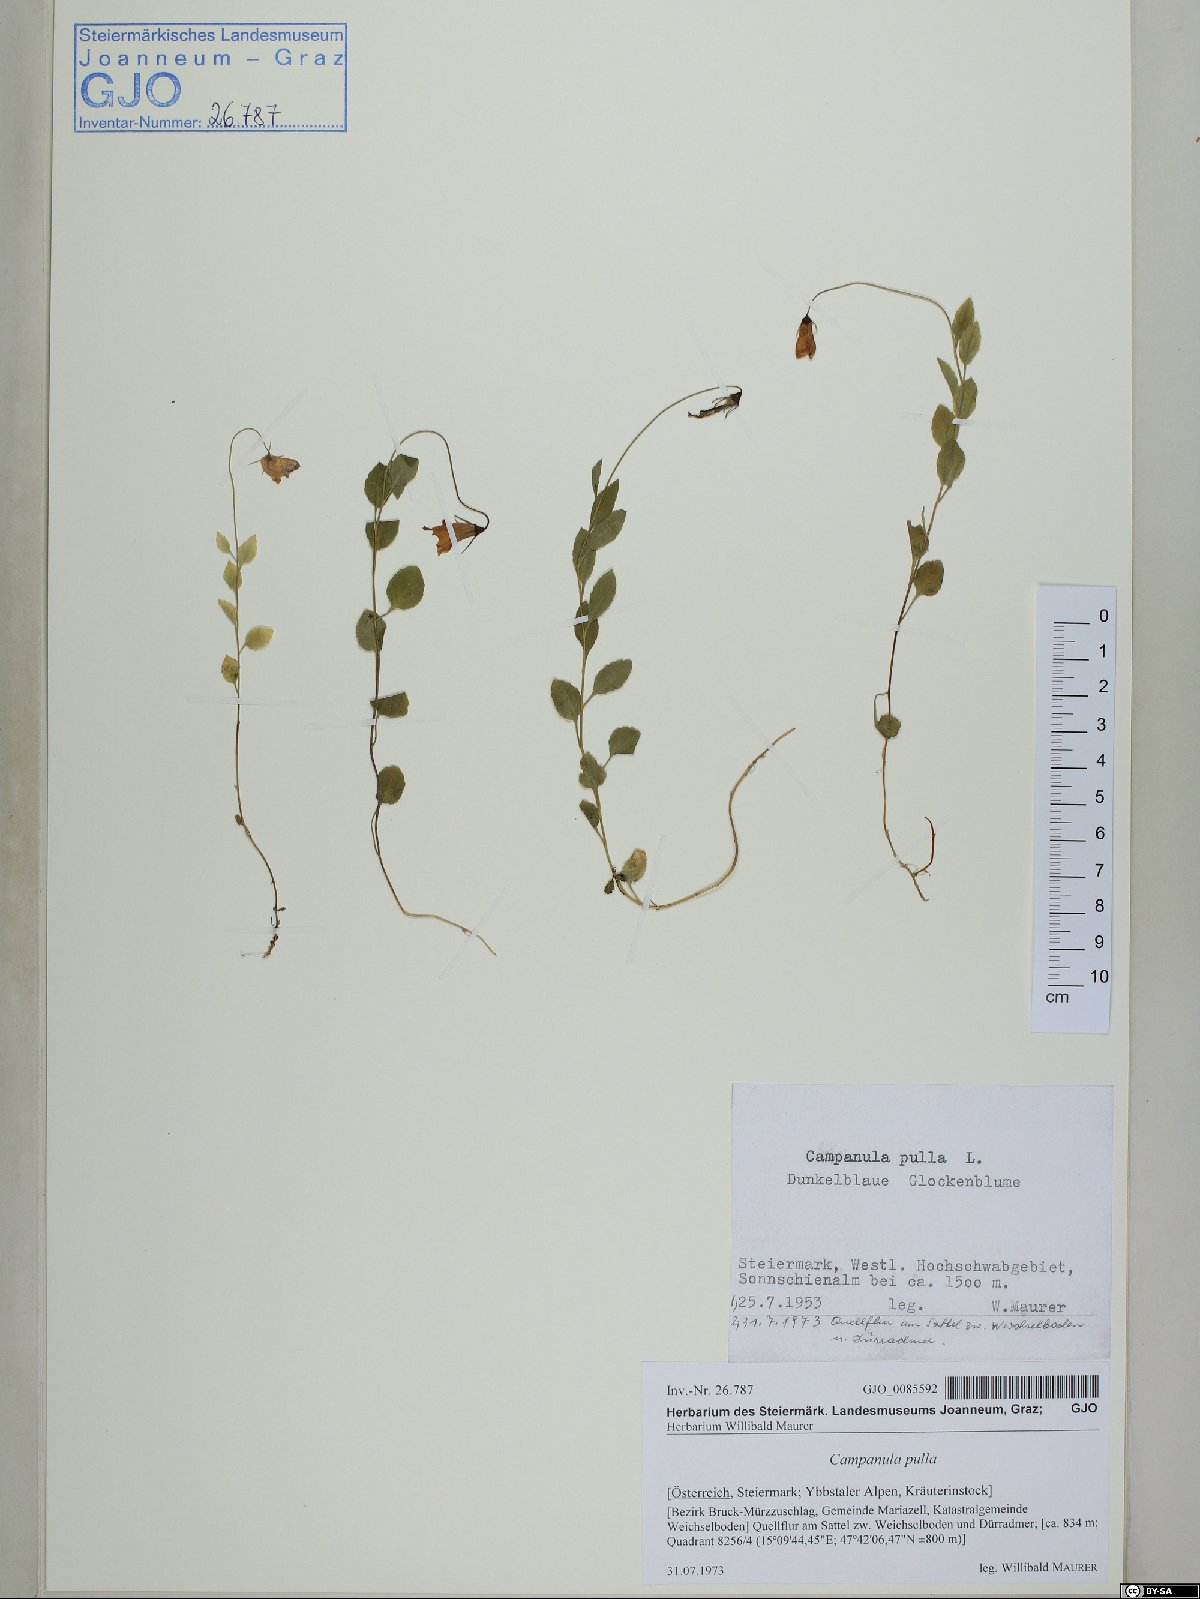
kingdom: Plantae
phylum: Tracheophyta
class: Magnoliopsida
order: Asterales
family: Campanulaceae
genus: Campanula
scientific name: Campanula pulla
